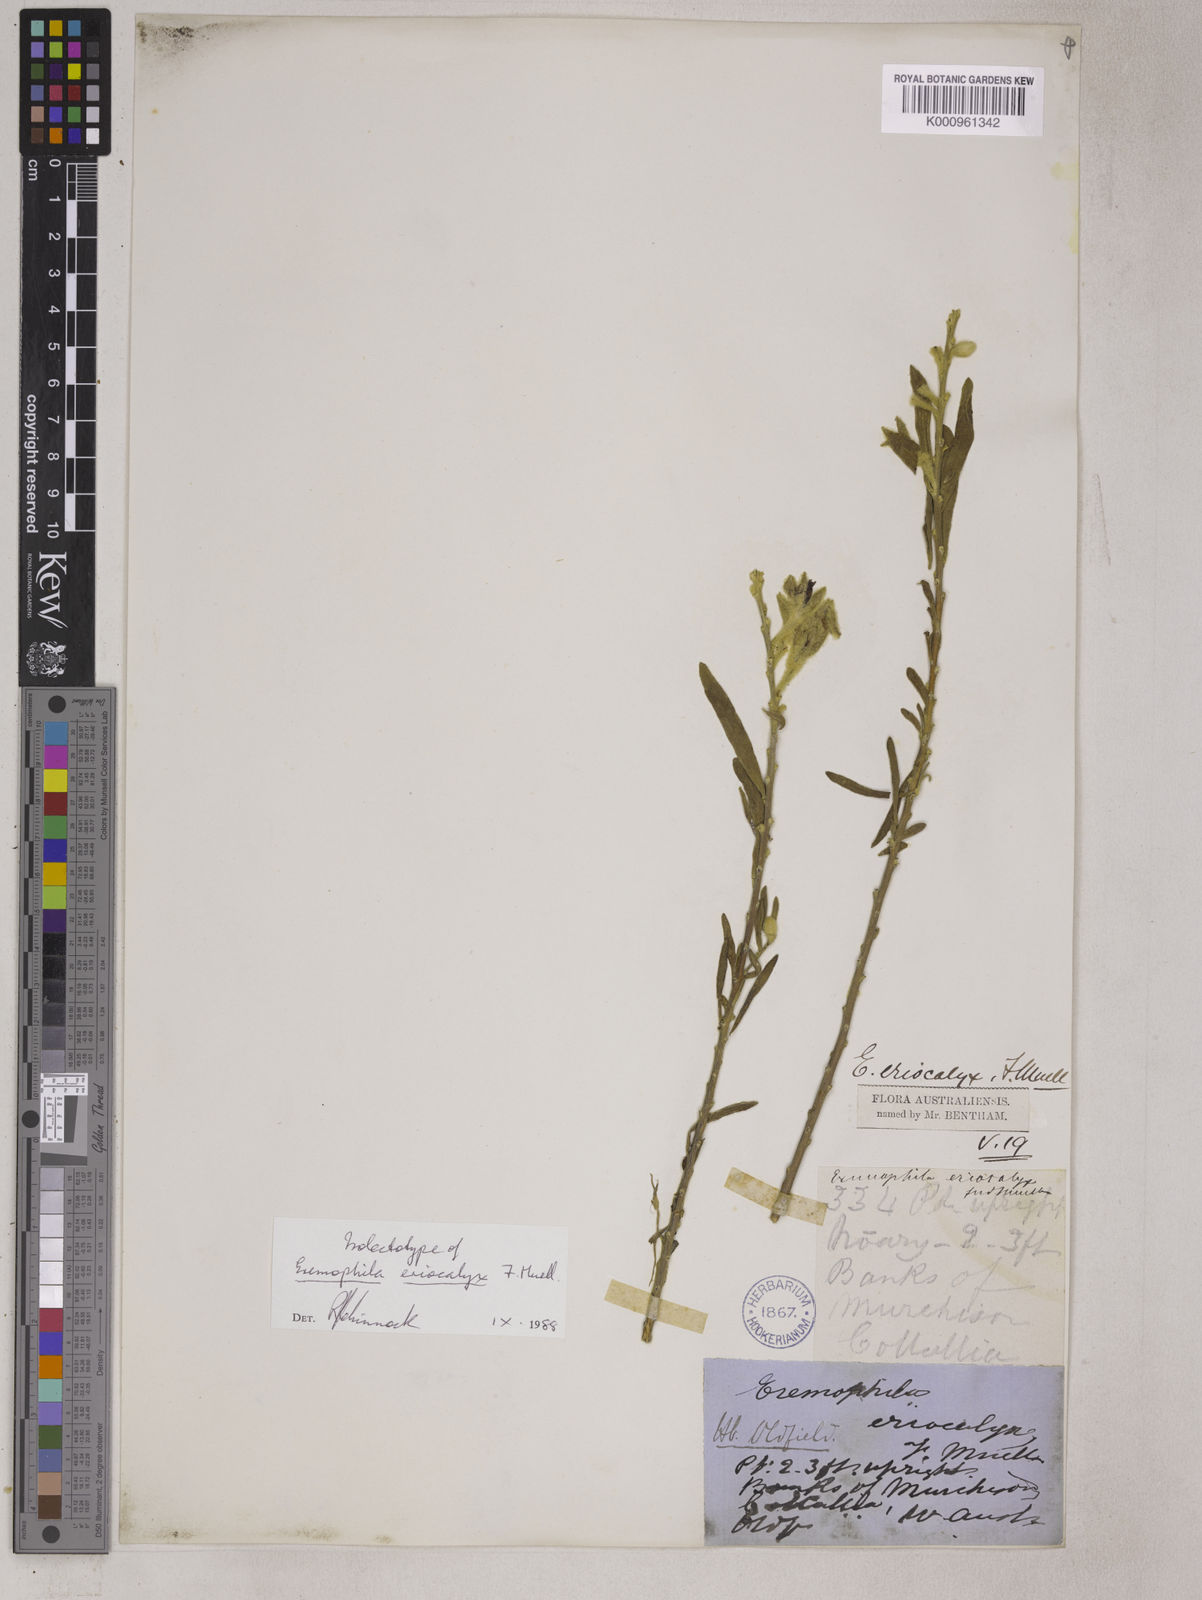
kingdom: Plantae
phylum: Tracheophyta
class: Magnoliopsida
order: Lamiales
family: Scrophulariaceae
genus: Eremophila
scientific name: Eremophila eriocalyx
